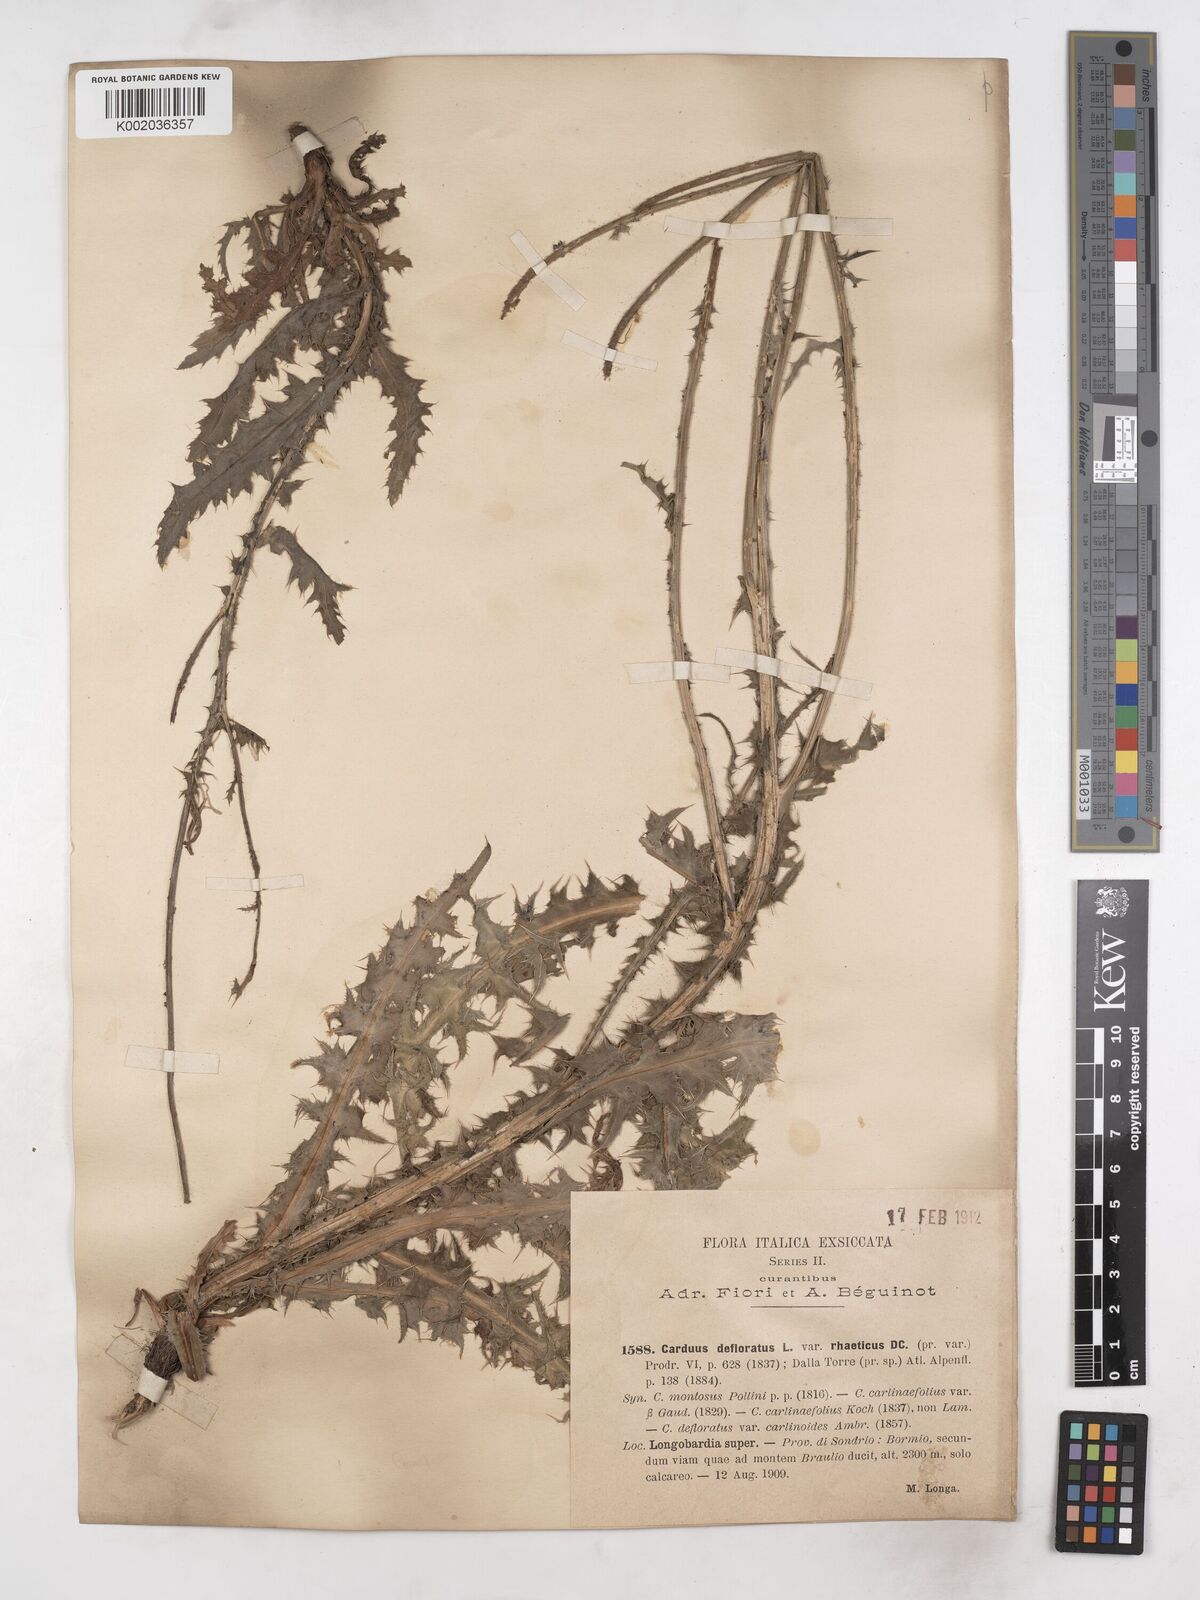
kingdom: Plantae
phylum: Tracheophyta
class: Magnoliopsida
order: Asterales
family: Asteraceae
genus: Carduus
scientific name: Carduus defloratus
